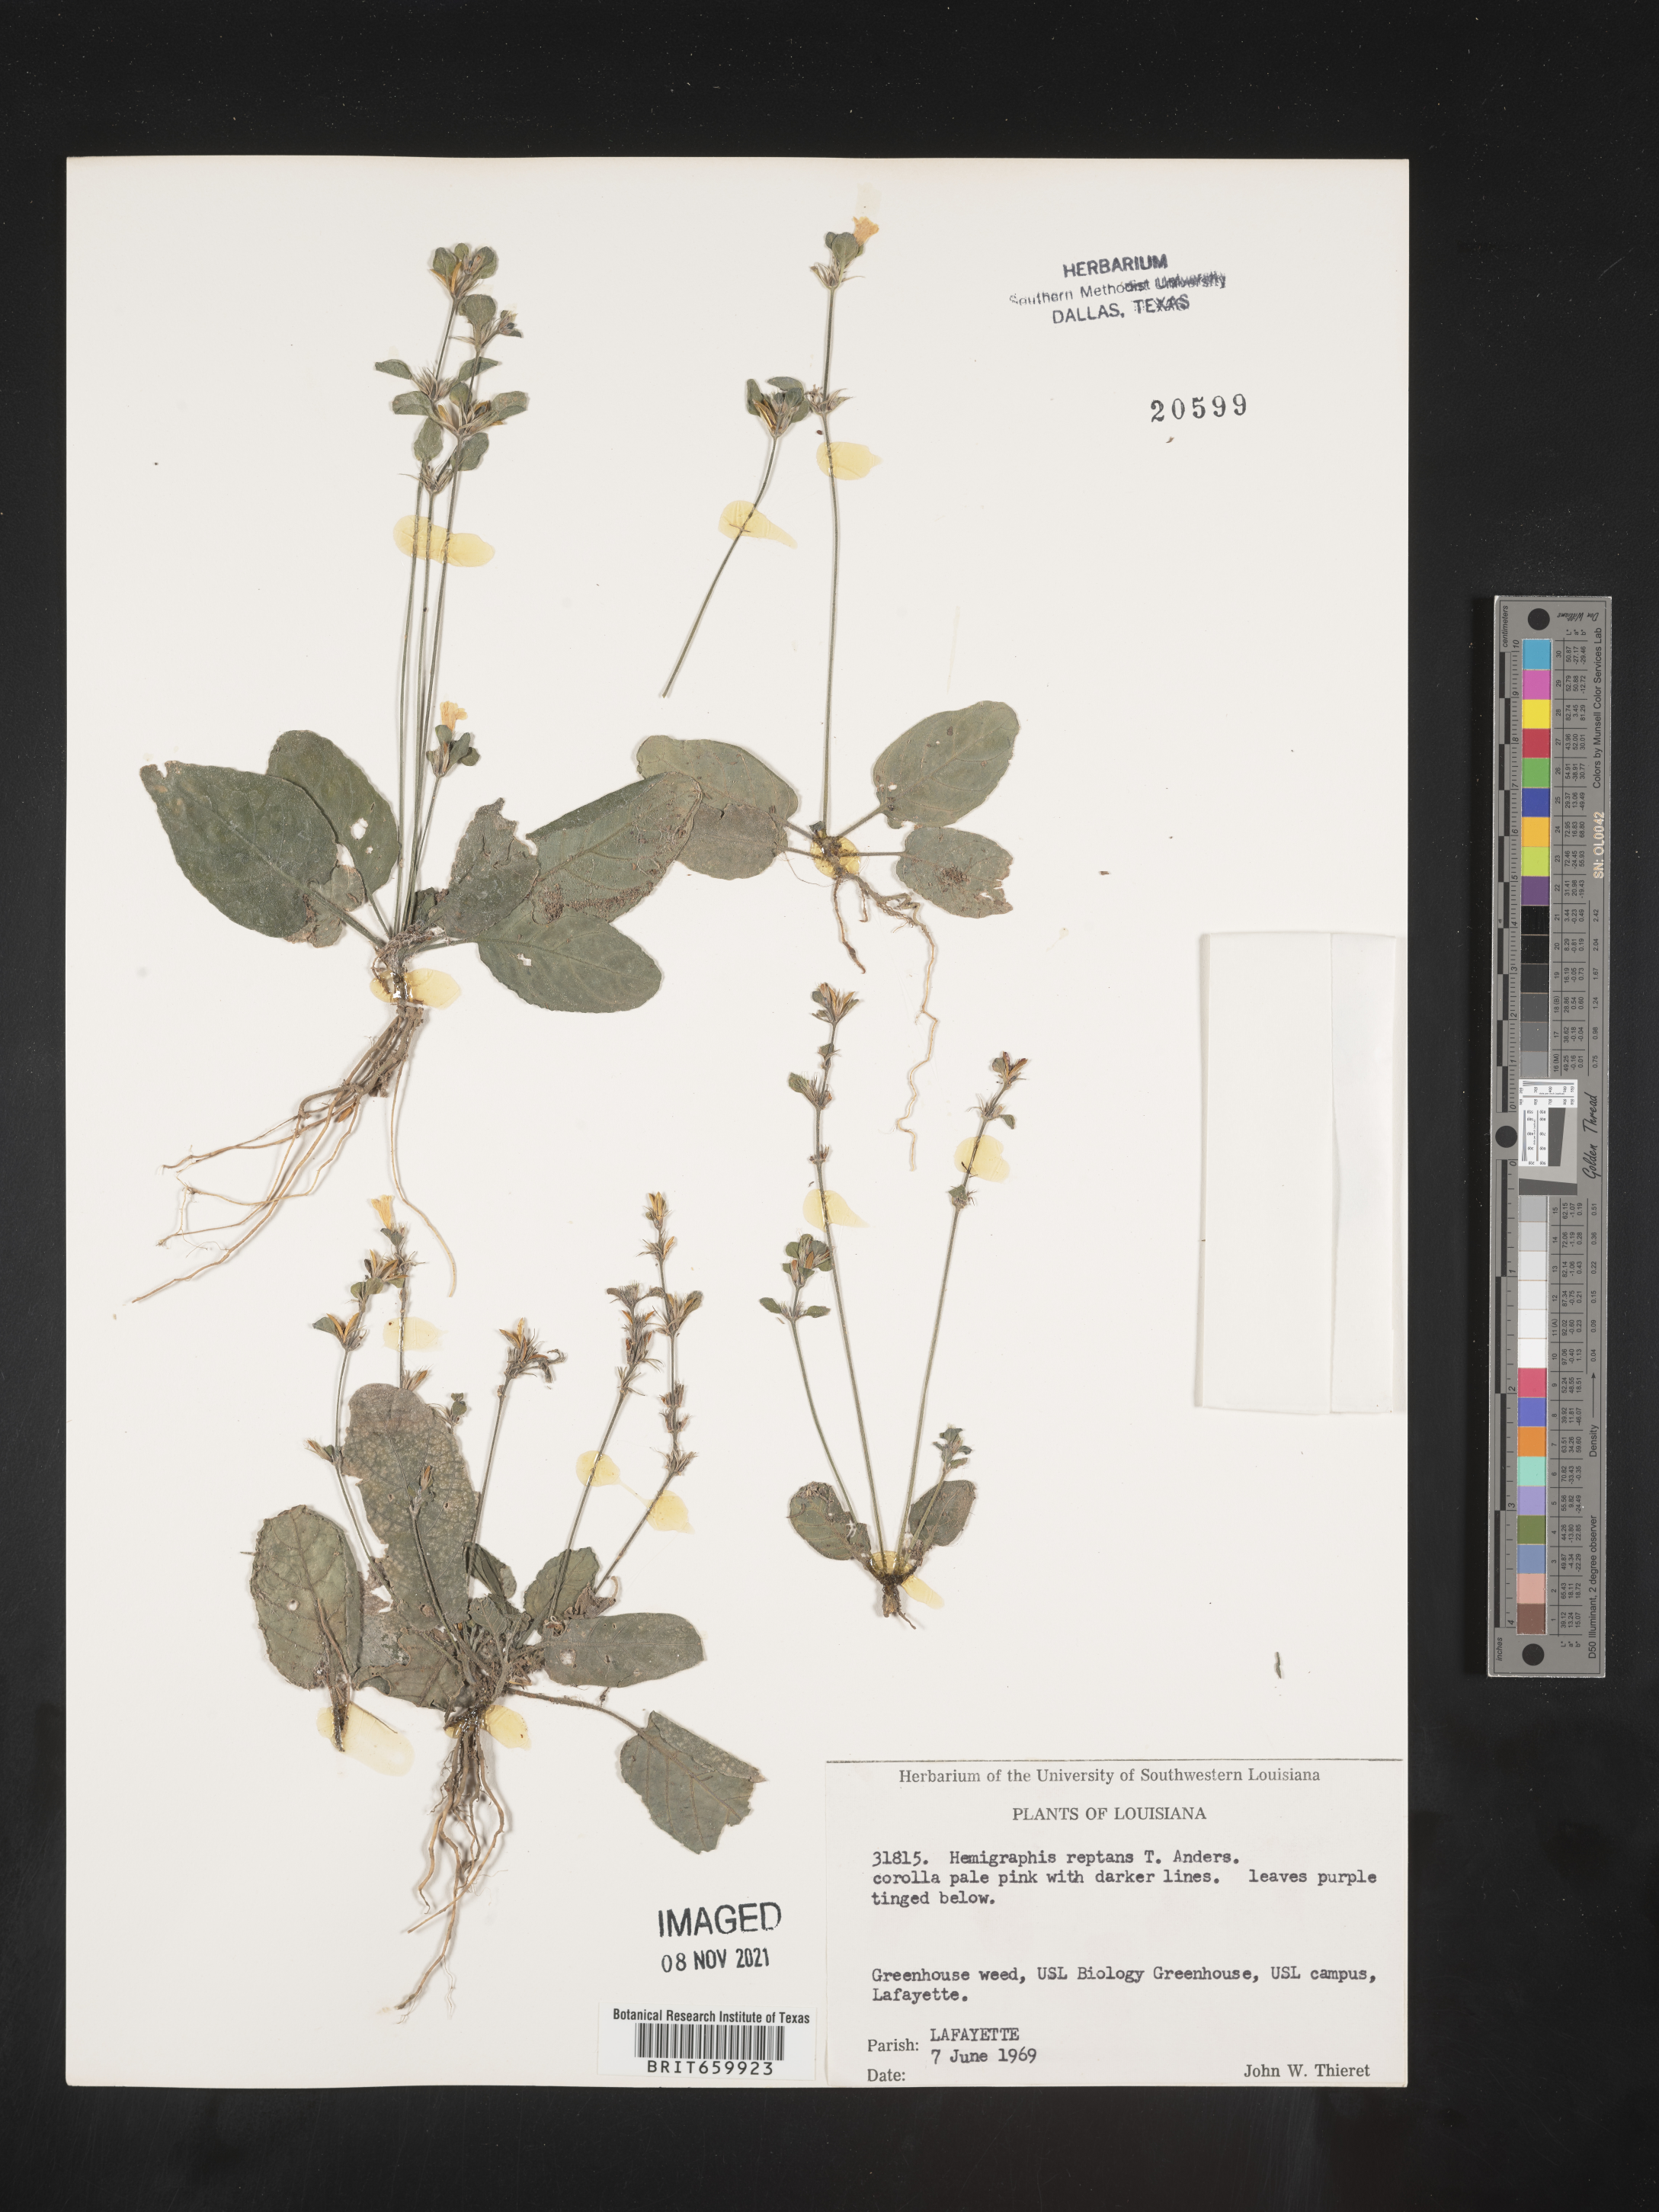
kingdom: Plantae
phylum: Tracheophyta
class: Magnoliopsida
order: Lamiales
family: Acanthaceae
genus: Hemigraphis
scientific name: Hemigraphis
